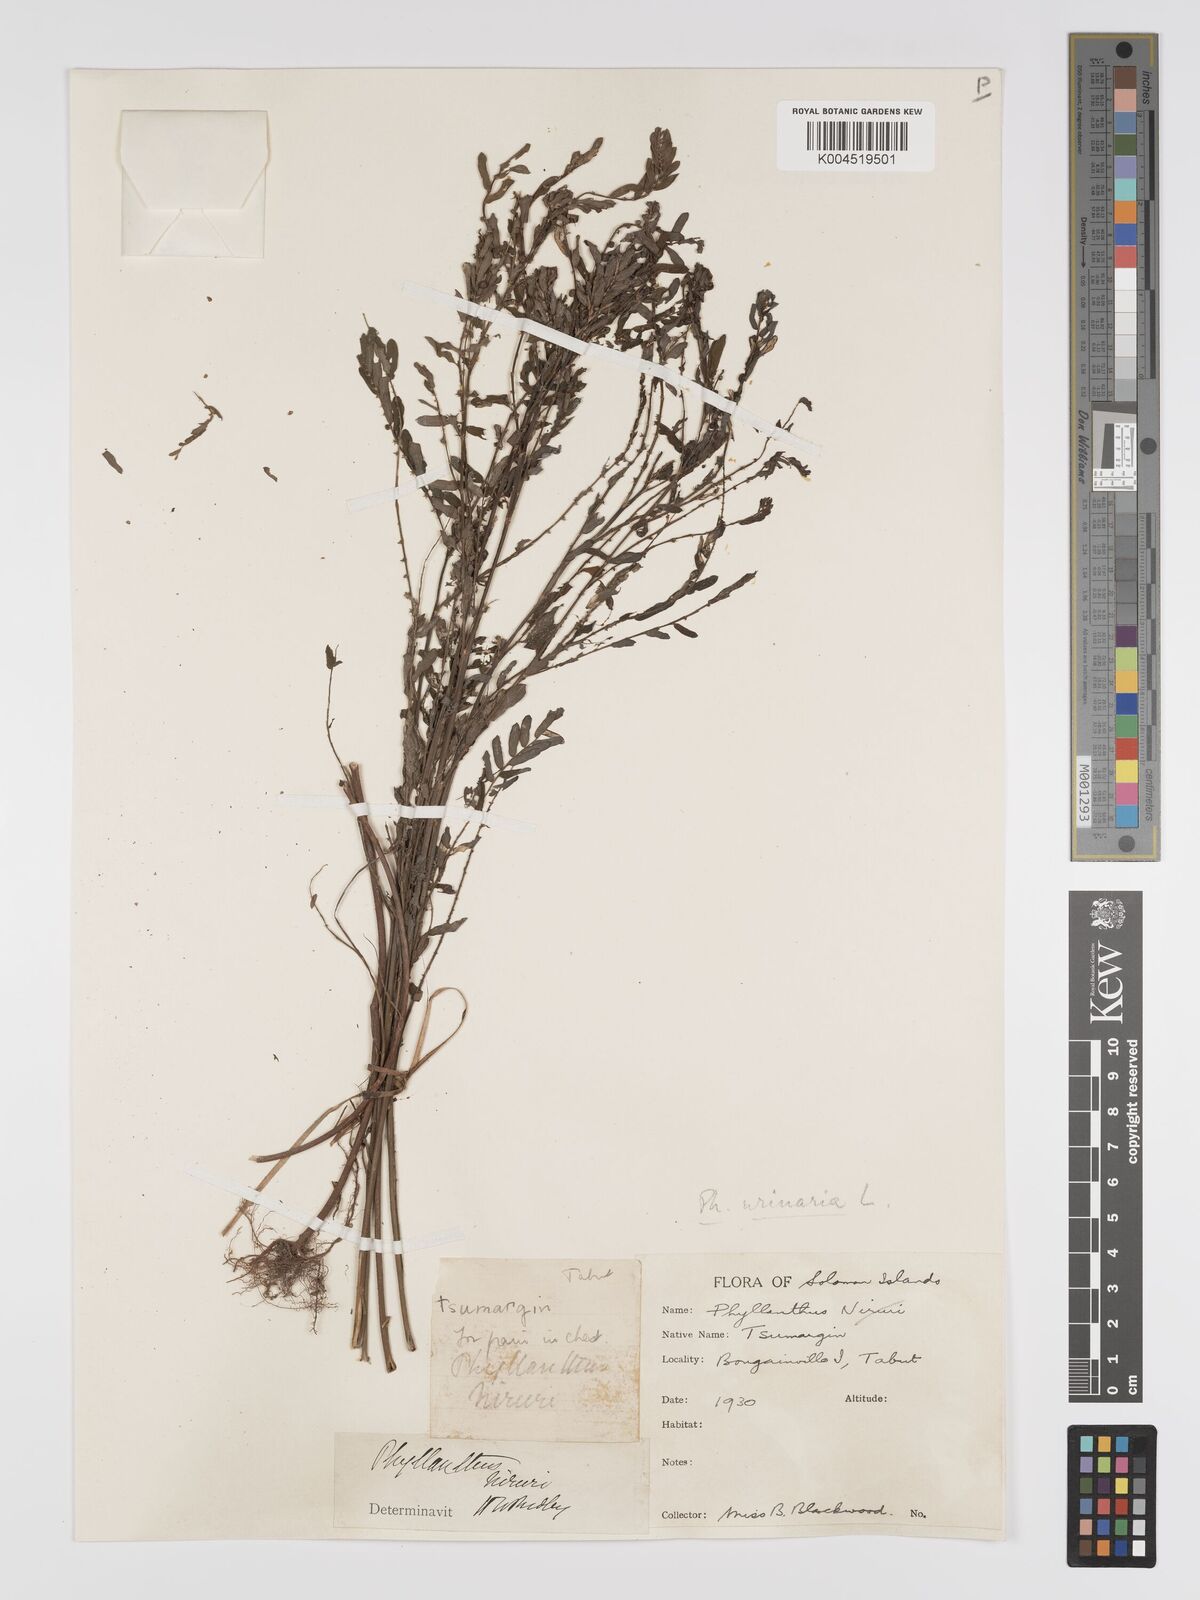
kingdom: Plantae
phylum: Tracheophyta
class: Magnoliopsida
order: Malpighiales
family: Phyllanthaceae
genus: Phyllanthus
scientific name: Phyllanthus urinaria
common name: Chamber bitter
